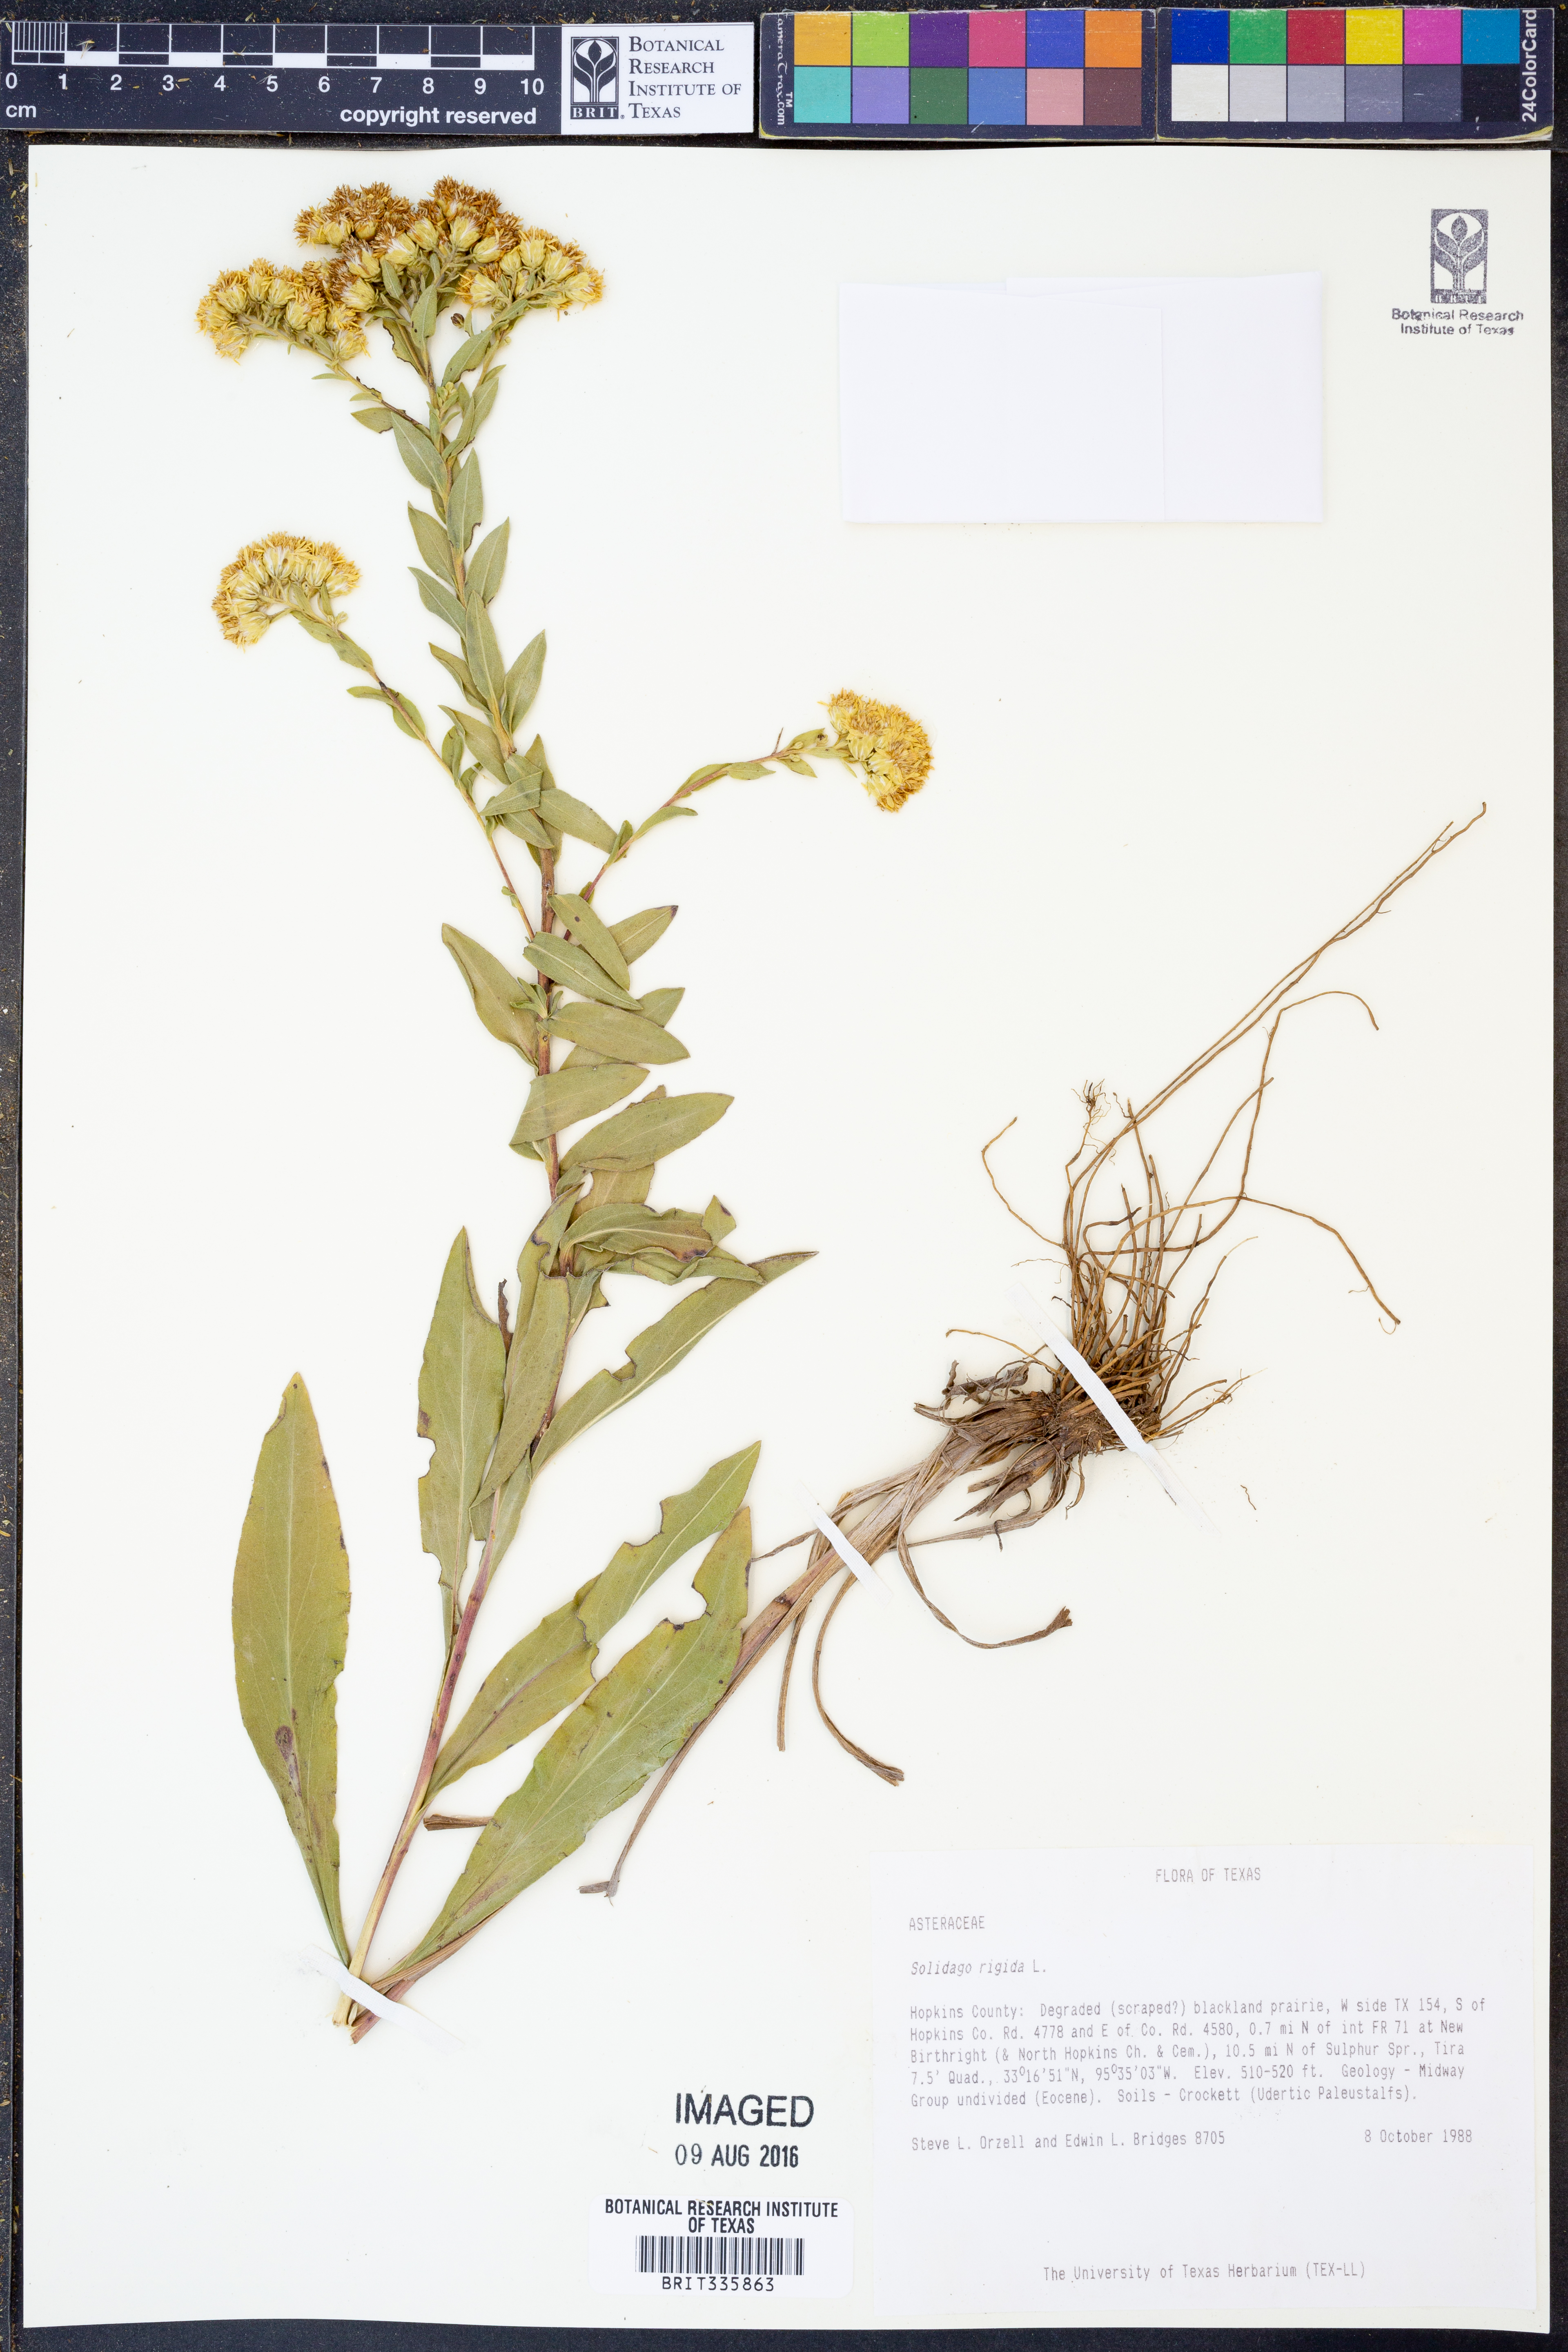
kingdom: Plantae
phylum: Tracheophyta
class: Magnoliopsida
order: Asterales
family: Asteraceae
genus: Solidago
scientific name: Solidago rigida
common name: Rigid goldenrod
